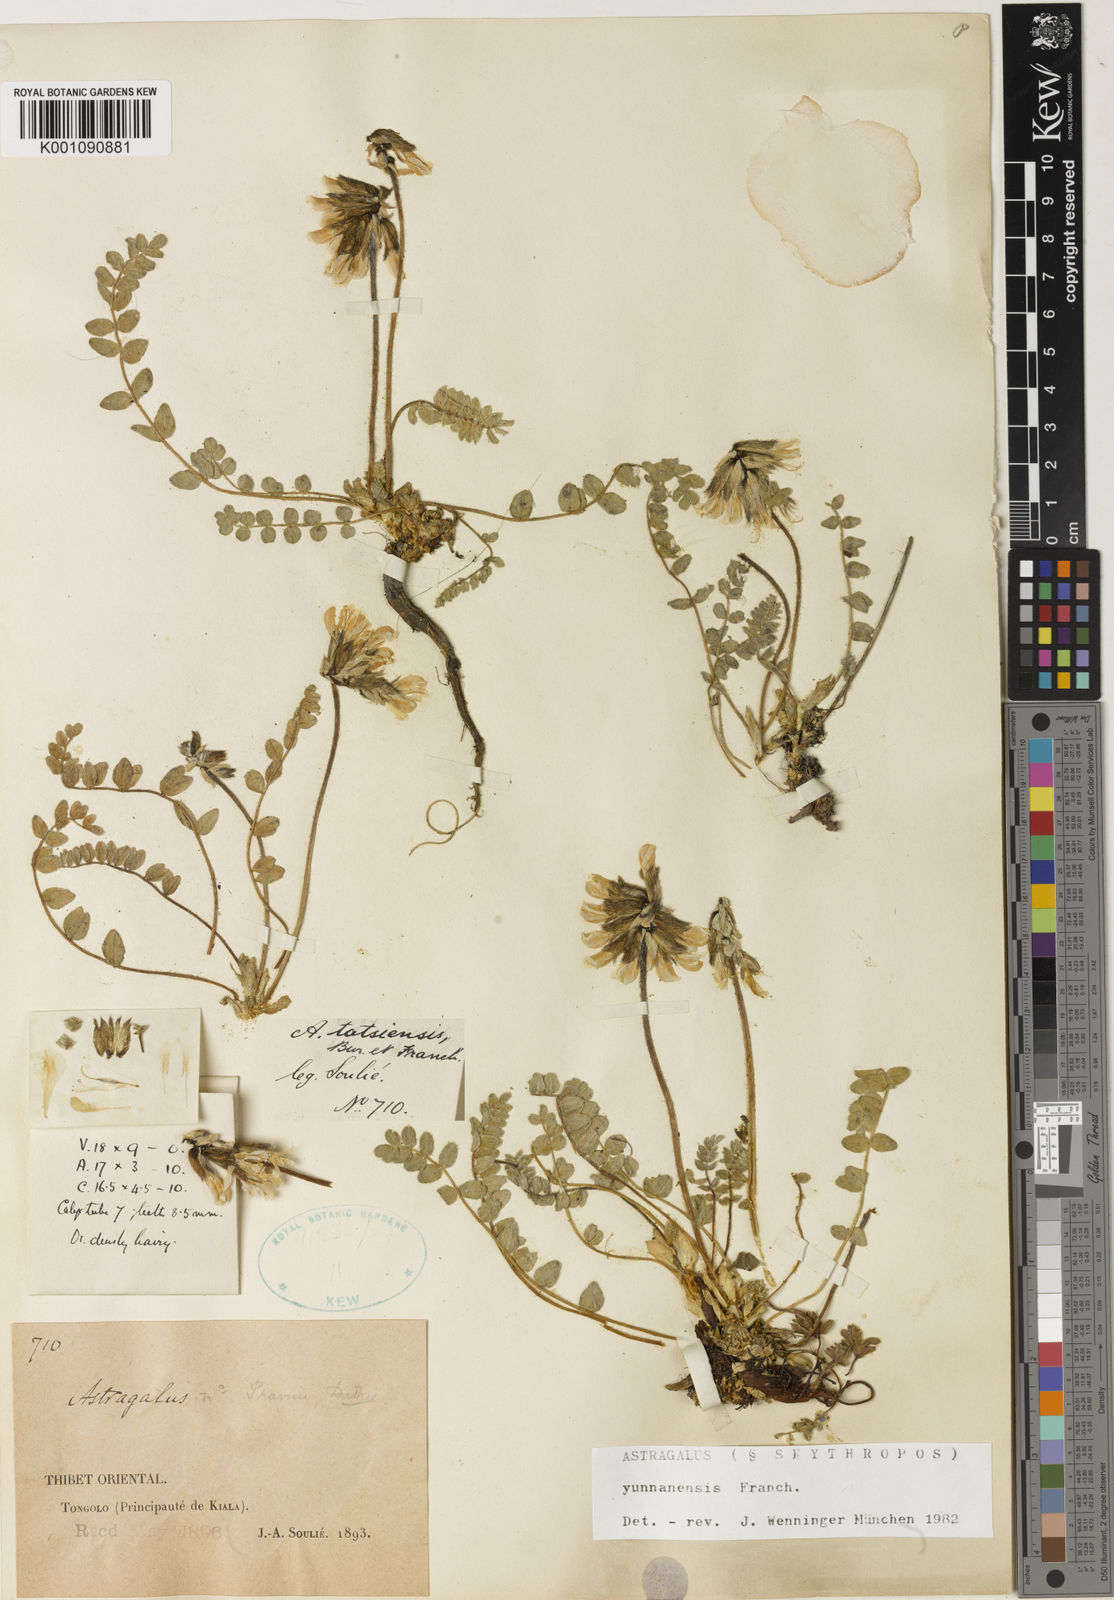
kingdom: Plantae
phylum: Tracheophyta
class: Magnoliopsida
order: Fabales
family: Fabaceae
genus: Astragalus
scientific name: Astragalus
